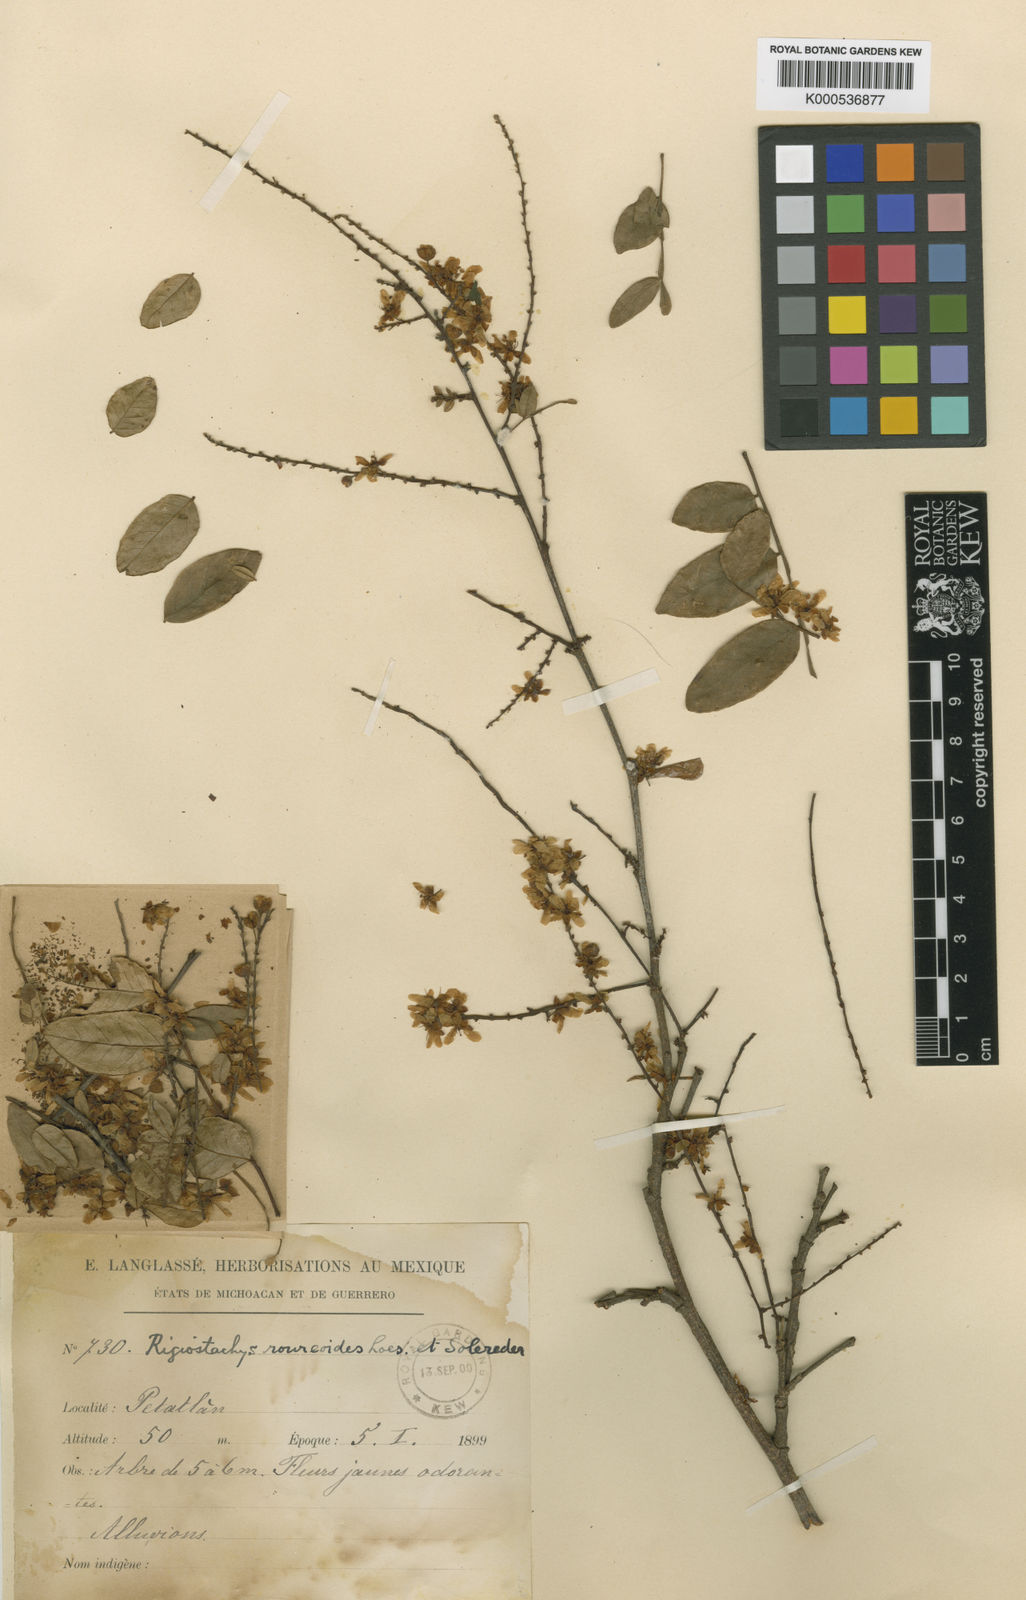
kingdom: Plantae
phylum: Tracheophyta
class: Magnoliopsida
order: Fabales
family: Surianaceae
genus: Recchia
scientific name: Recchia
